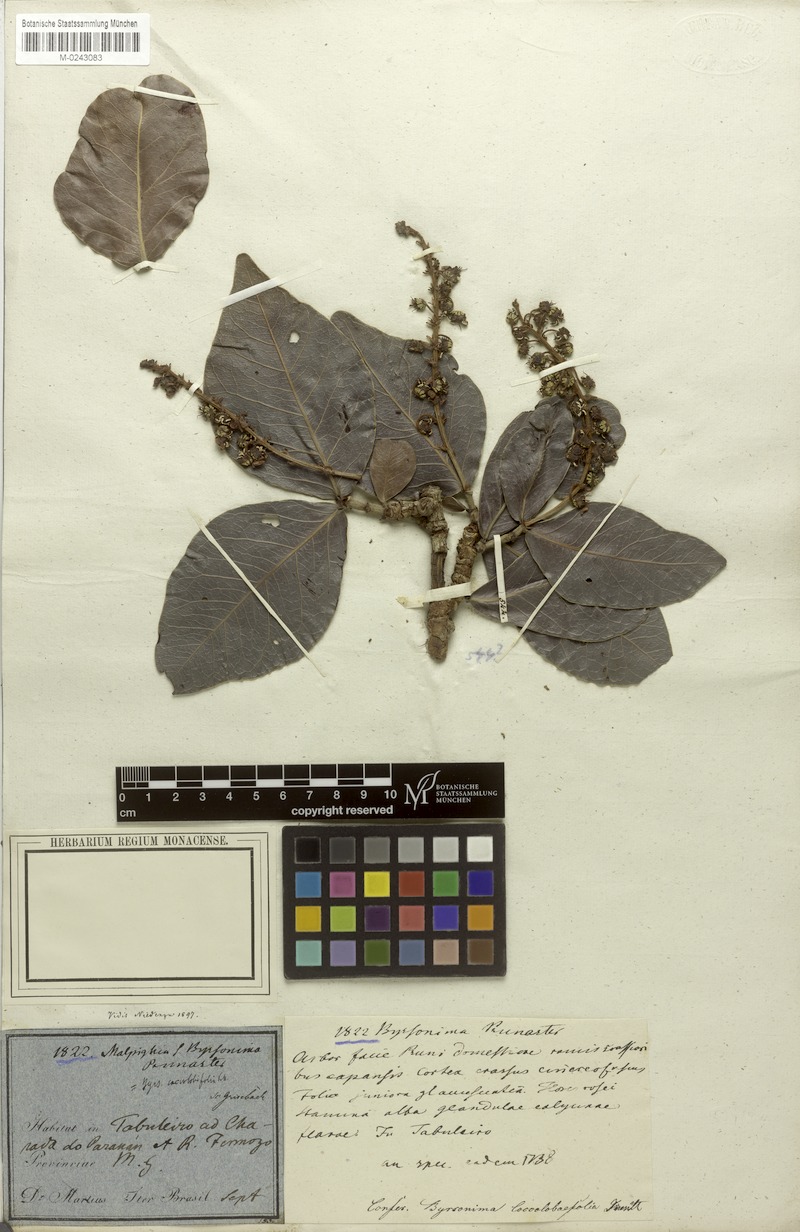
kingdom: Plantae
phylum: Tracheophyta
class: Magnoliopsida
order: Malpighiales
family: Malpighiaceae
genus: Byrsonima
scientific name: Byrsonima coccolobifolia
